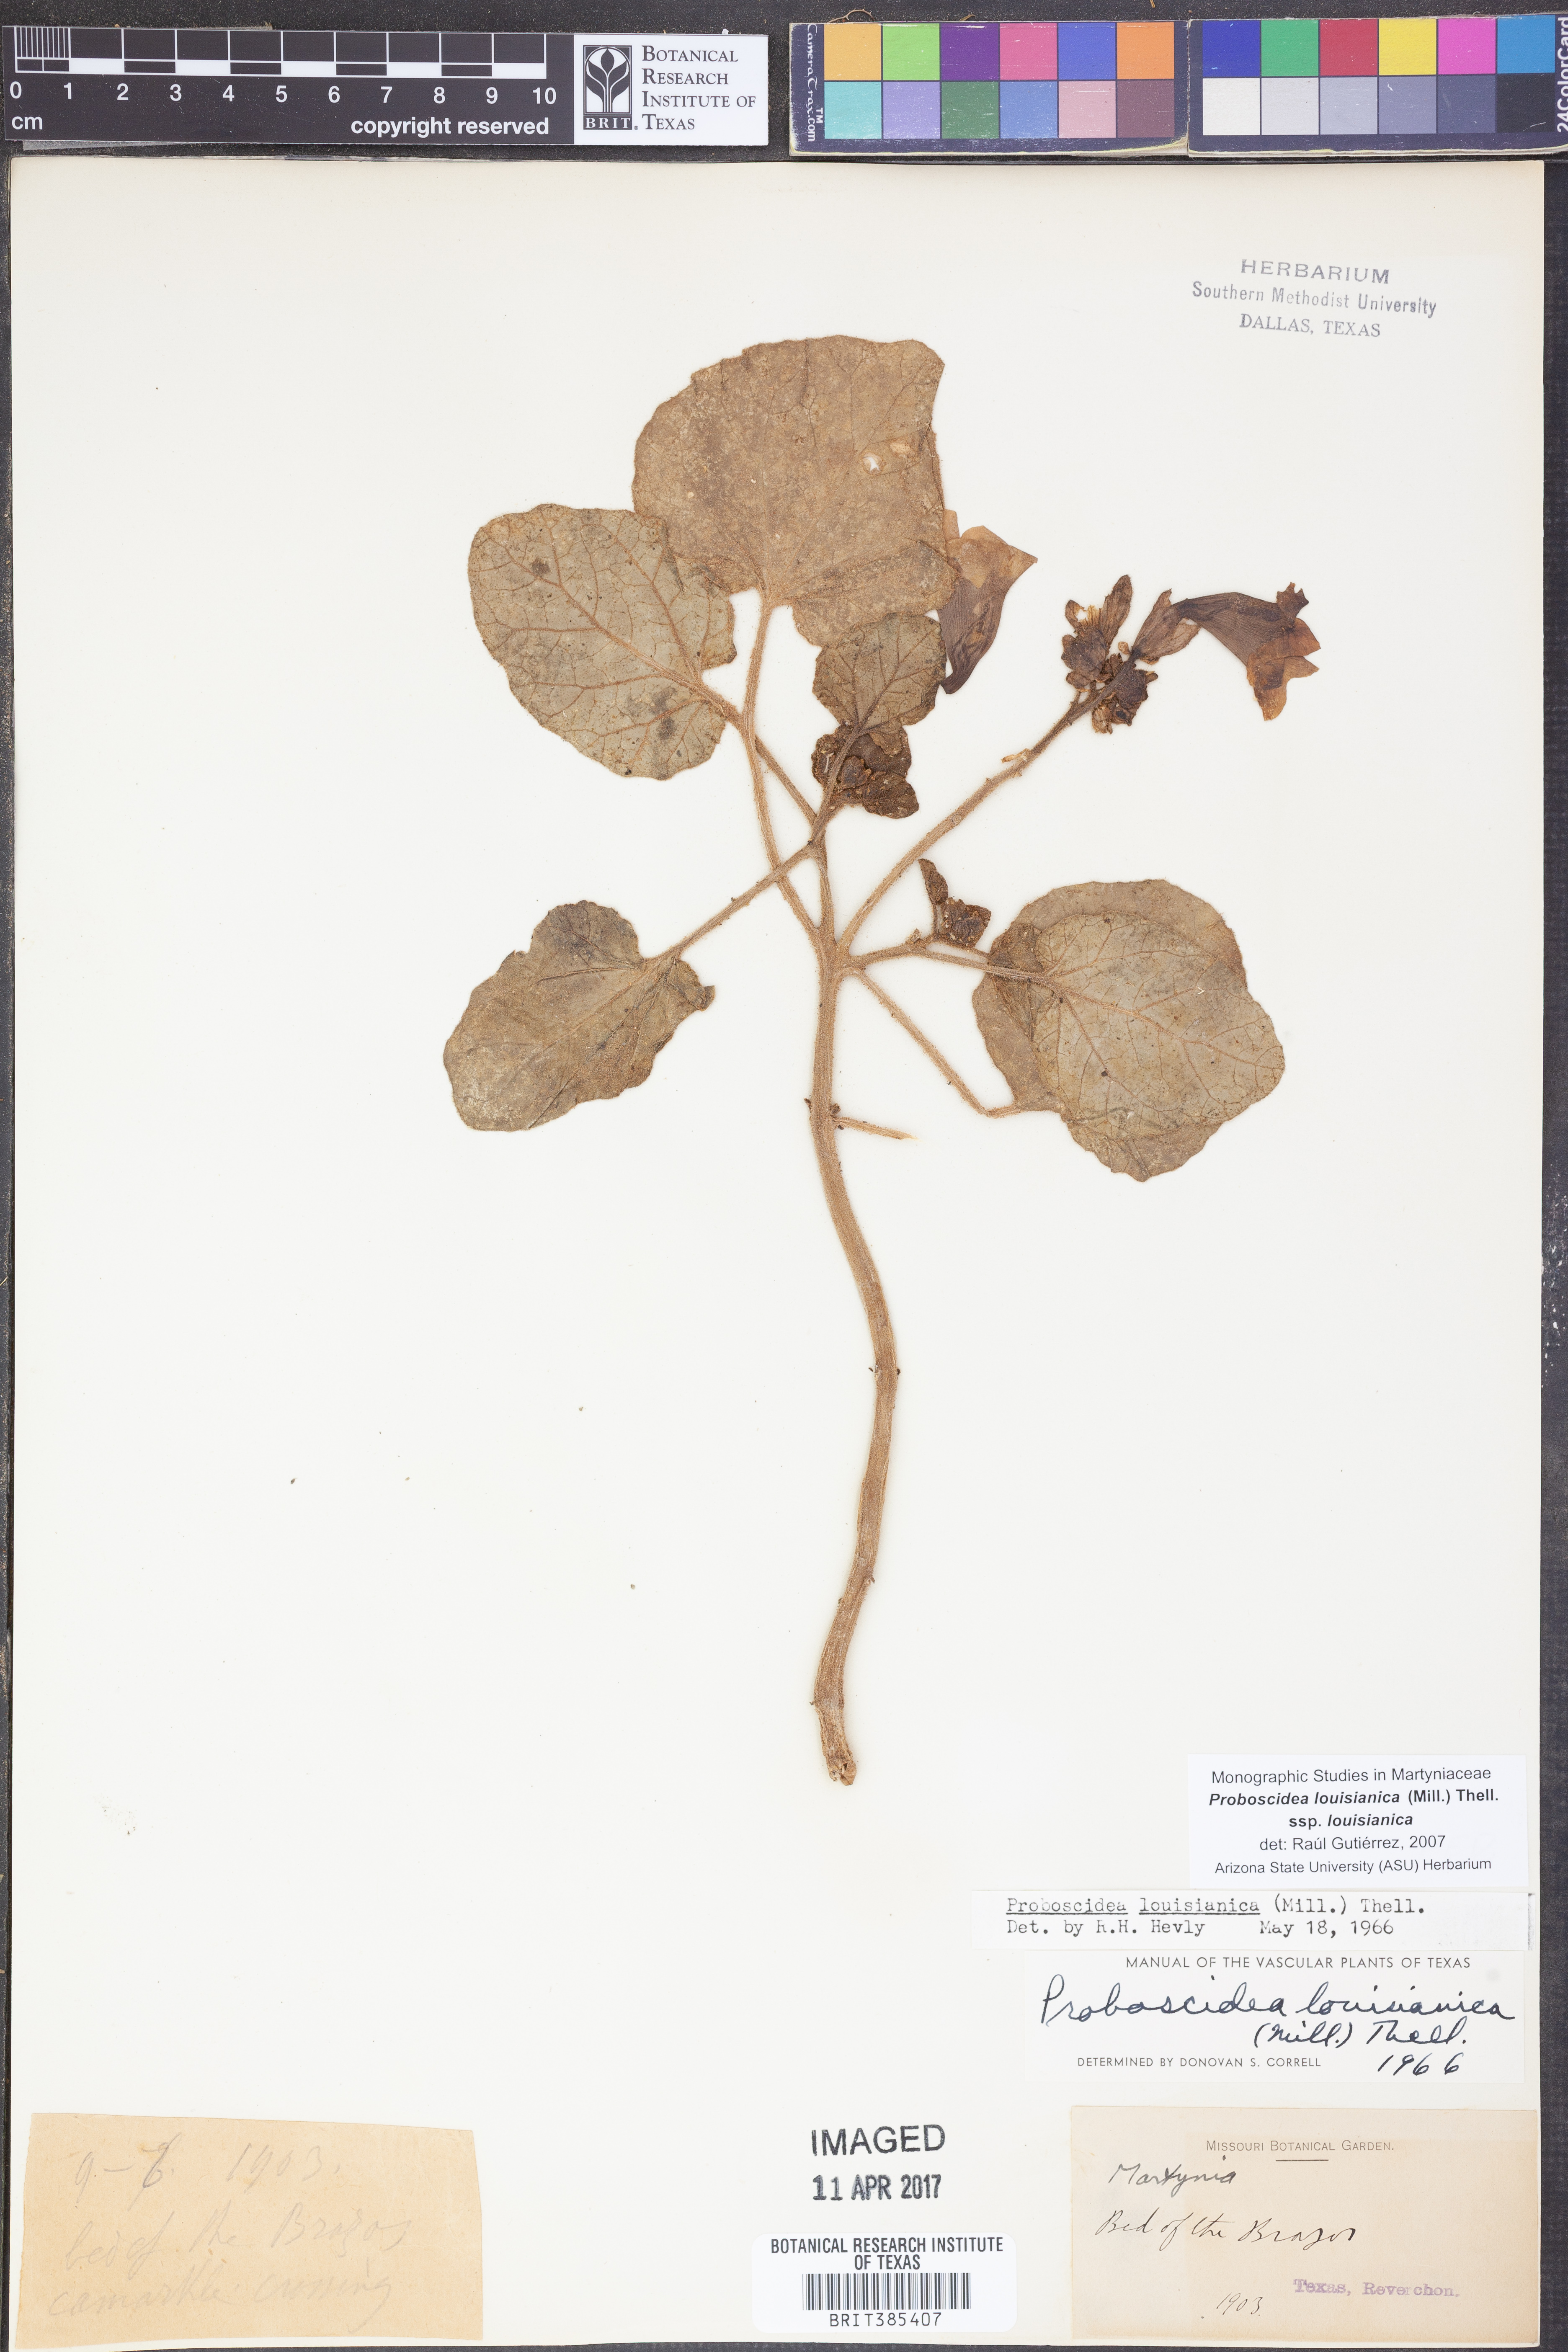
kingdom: Plantae
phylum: Tracheophyta
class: Magnoliopsida
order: Lamiales
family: Martyniaceae
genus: Proboscidea
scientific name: Proboscidea louisianica
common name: Elephant tusks
